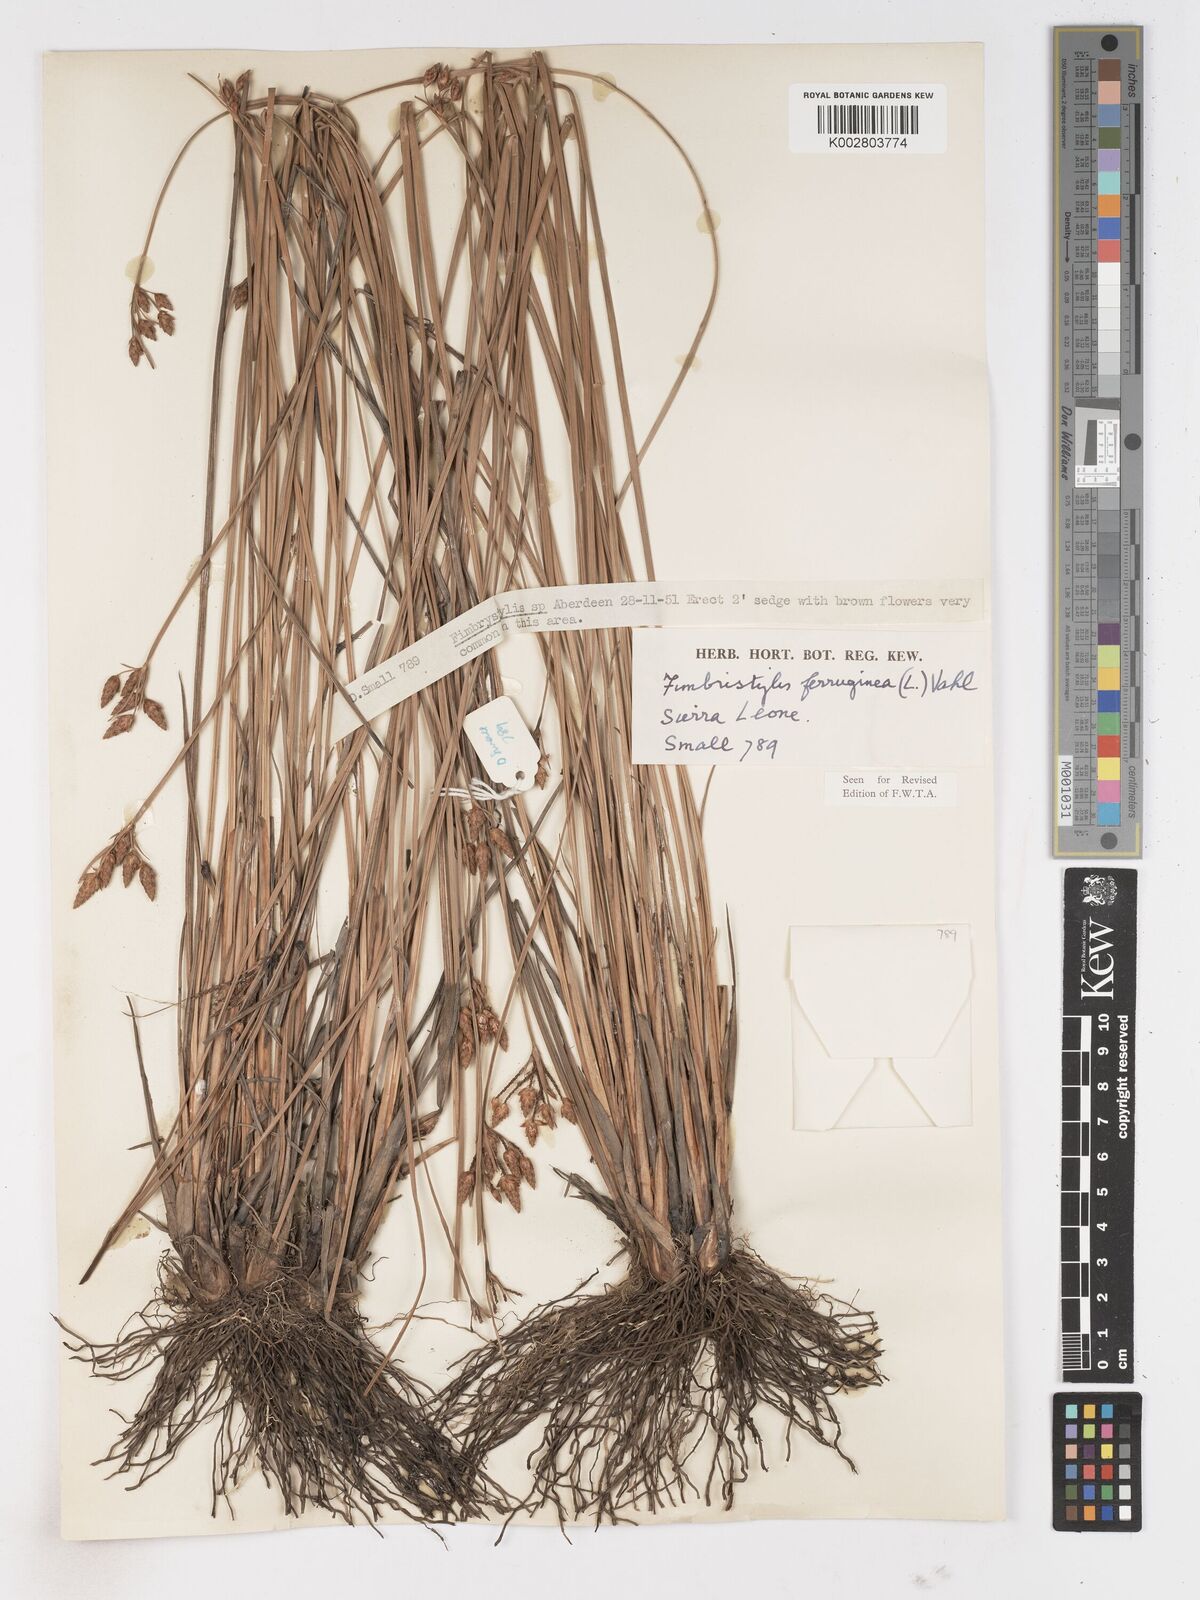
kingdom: Plantae
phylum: Tracheophyta
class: Liliopsida
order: Poales
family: Cyperaceae
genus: Fimbristylis
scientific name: Fimbristylis ferruginea
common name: West indian fimbry
